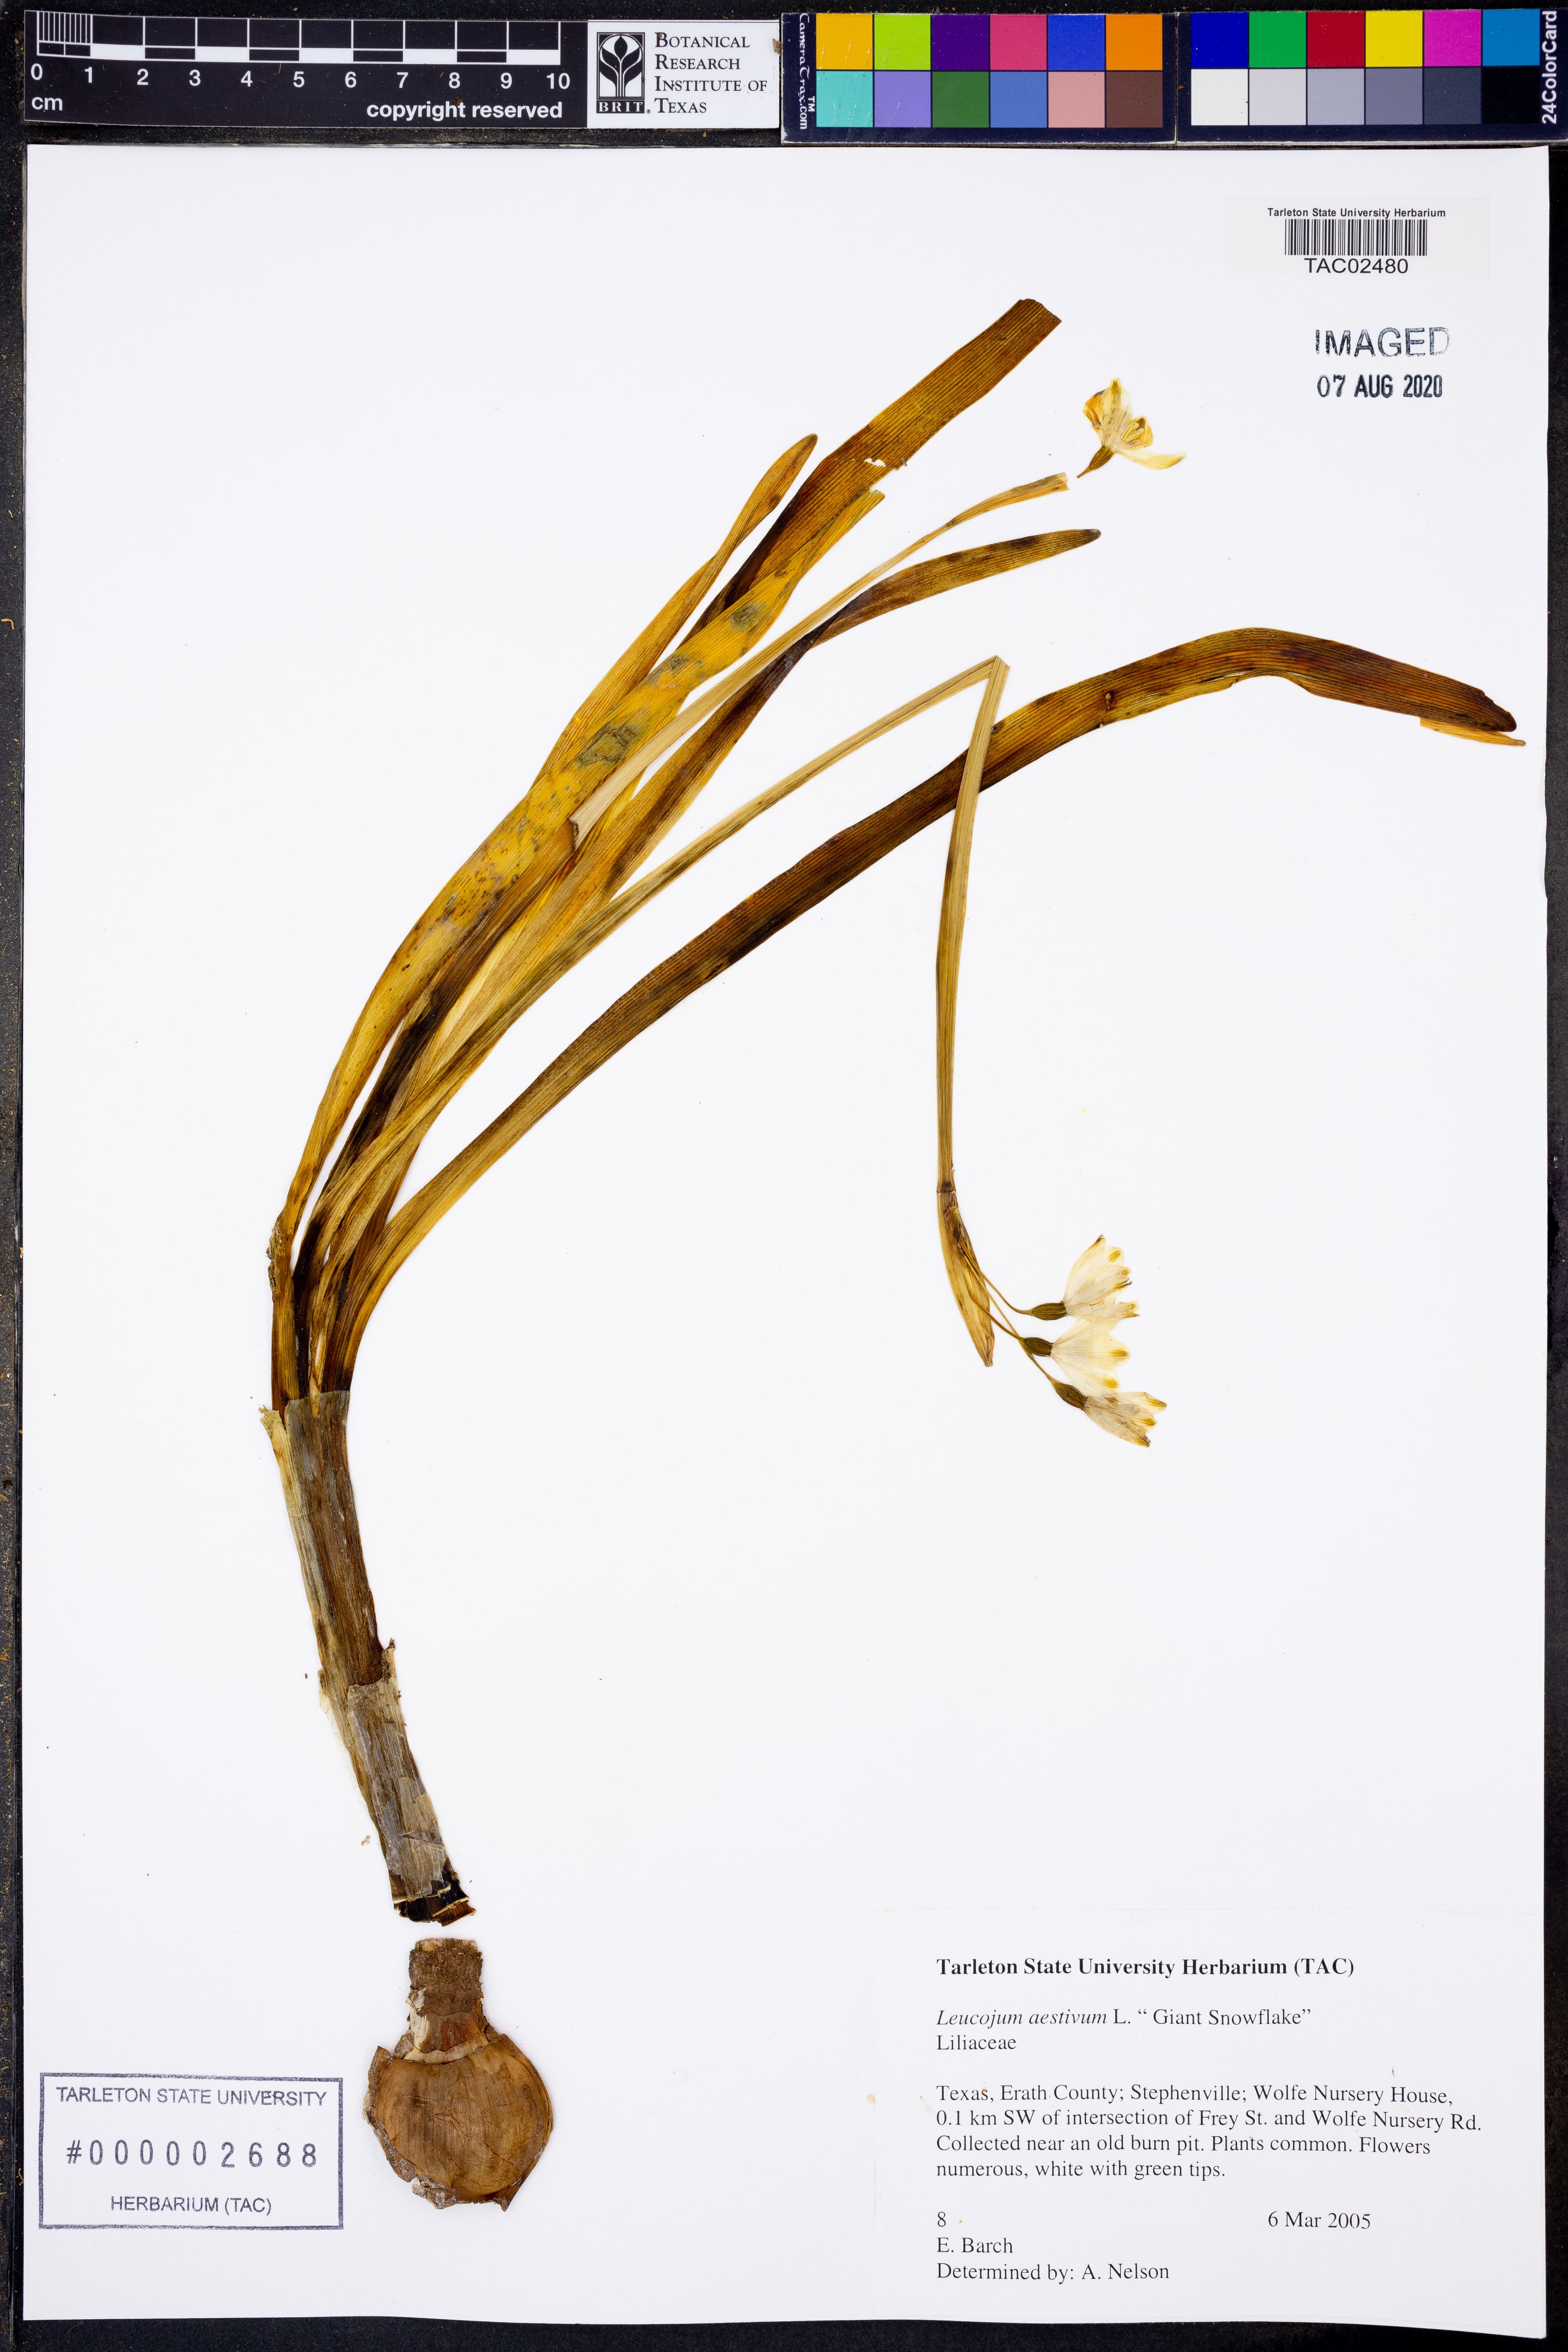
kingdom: Plantae
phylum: Tracheophyta
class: Liliopsida
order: Asparagales
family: Amaryllidaceae
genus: Leucojum
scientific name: Leucojum aestivum
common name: Summer snowflake
